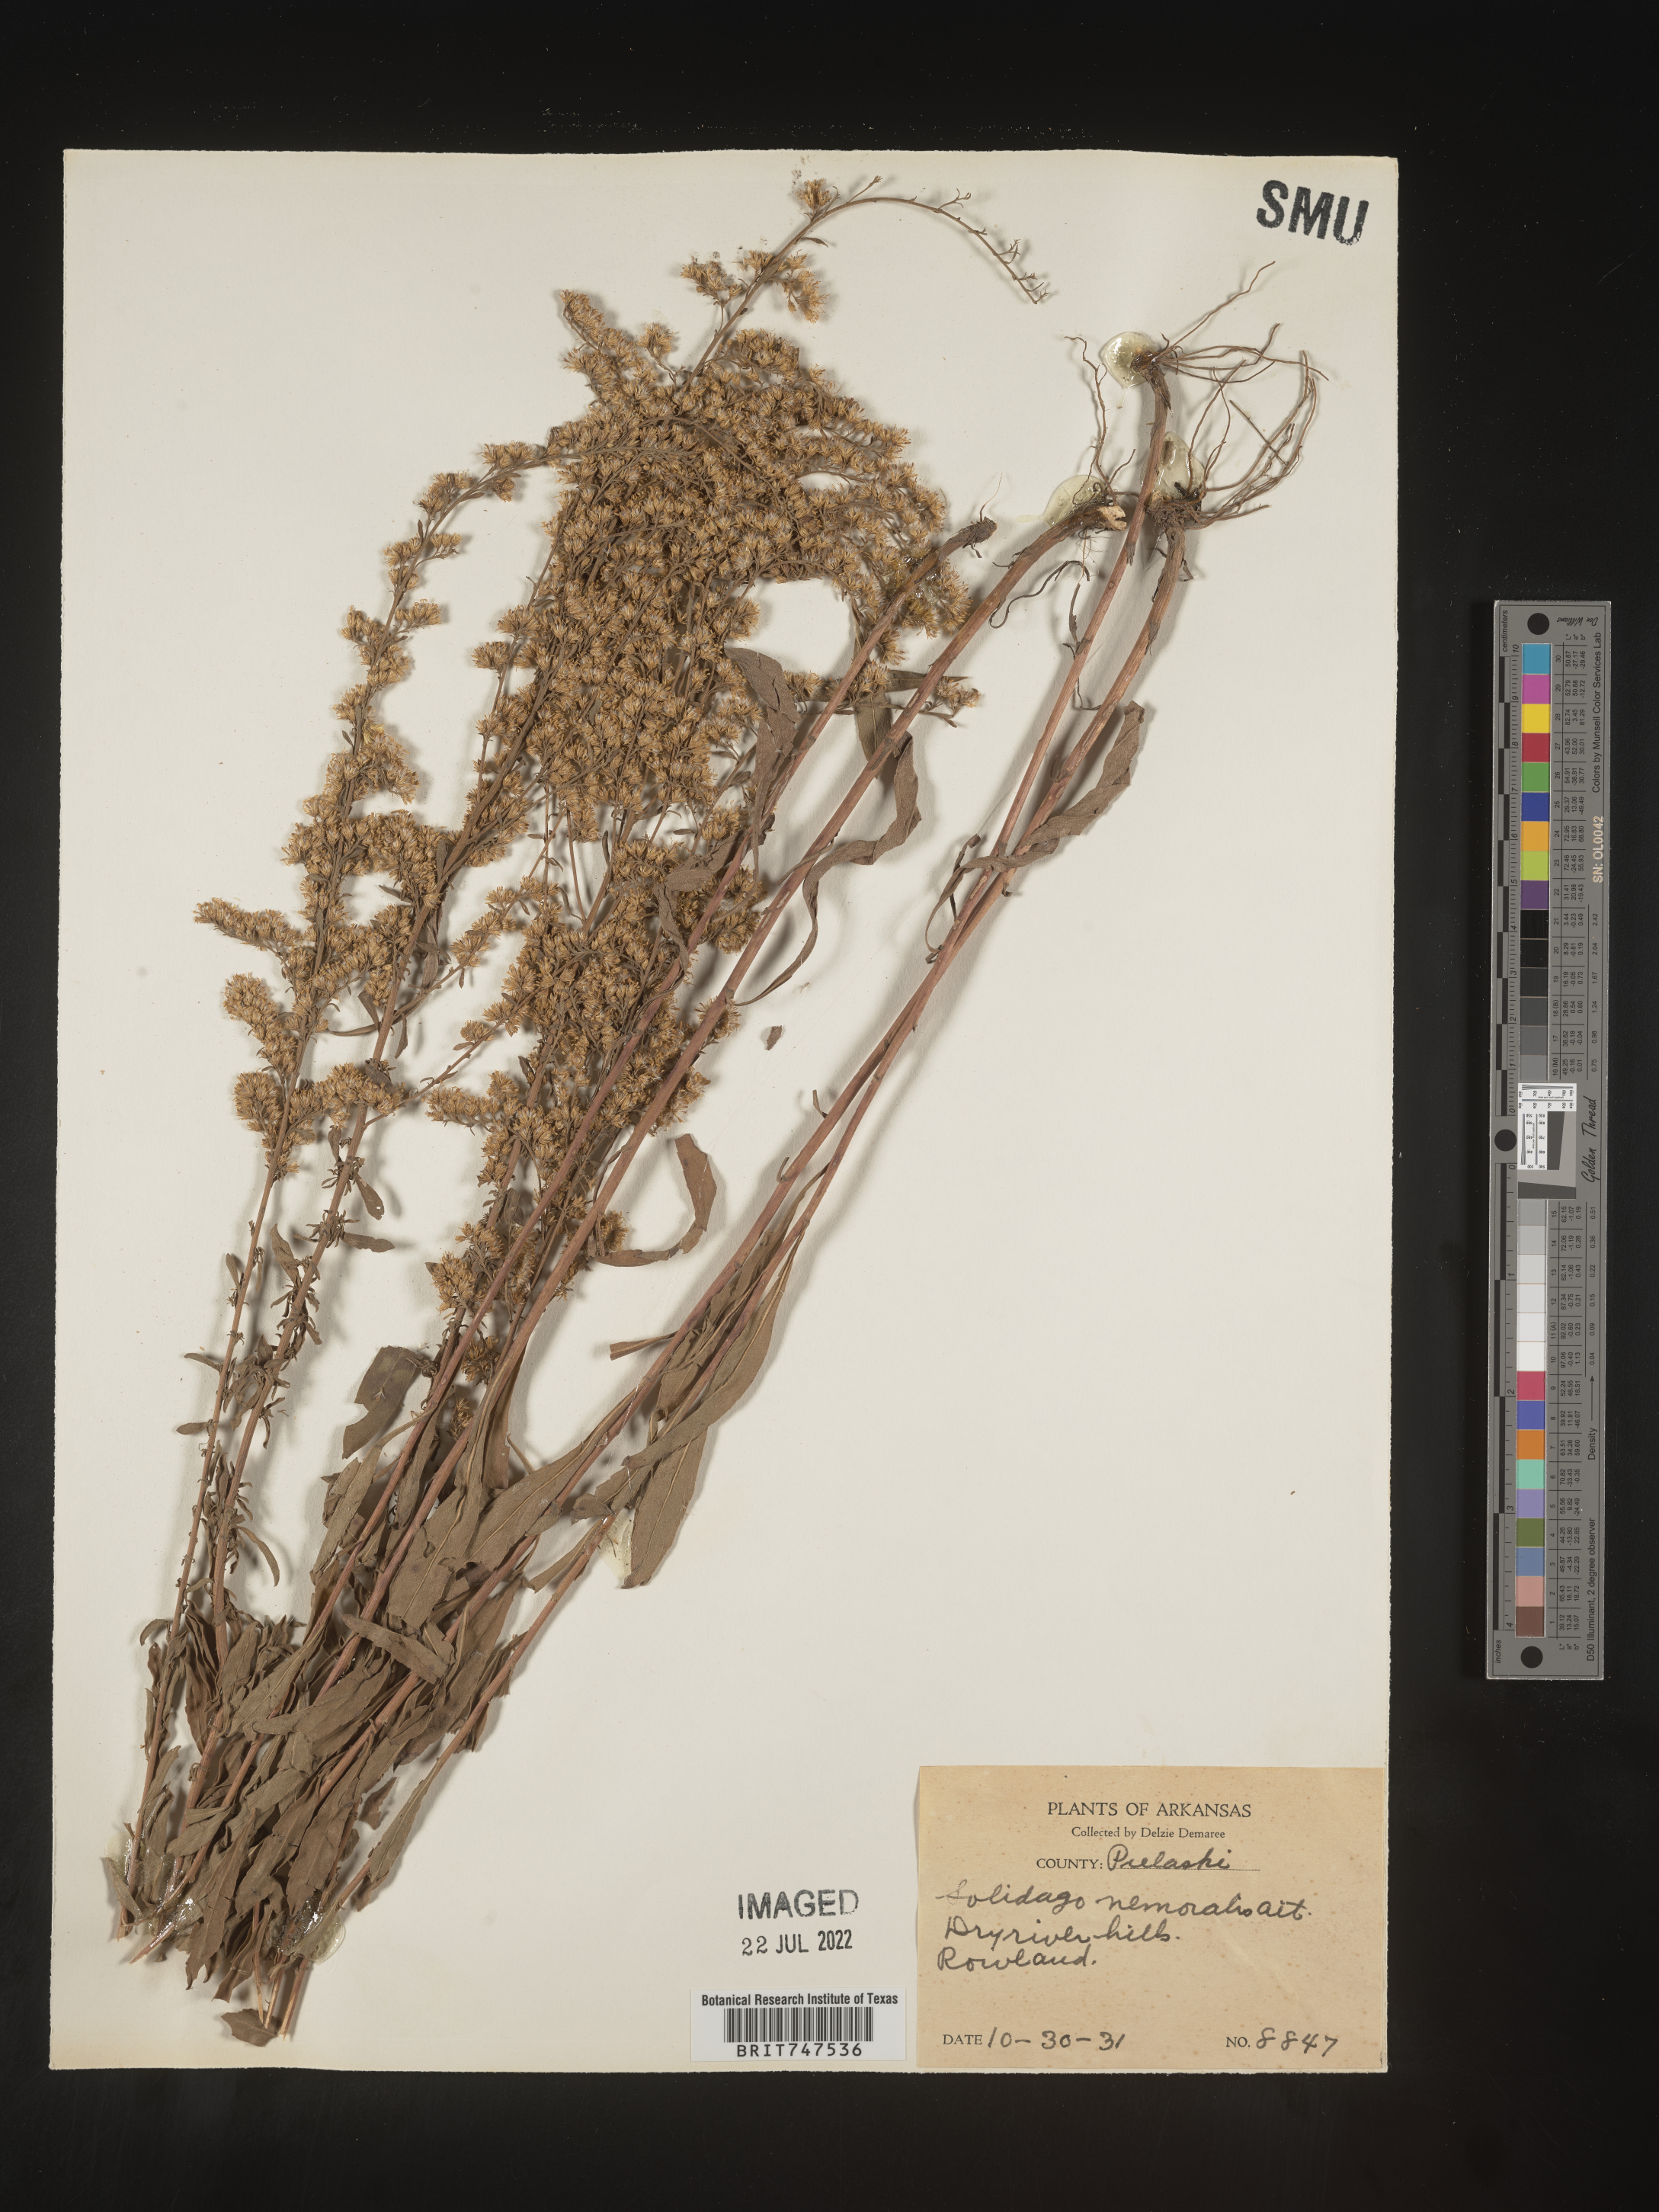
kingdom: Plantae
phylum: Tracheophyta
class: Magnoliopsida
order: Asterales
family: Asteraceae
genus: Solidago
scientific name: Solidago nemoralis
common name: Grey goldenrod
